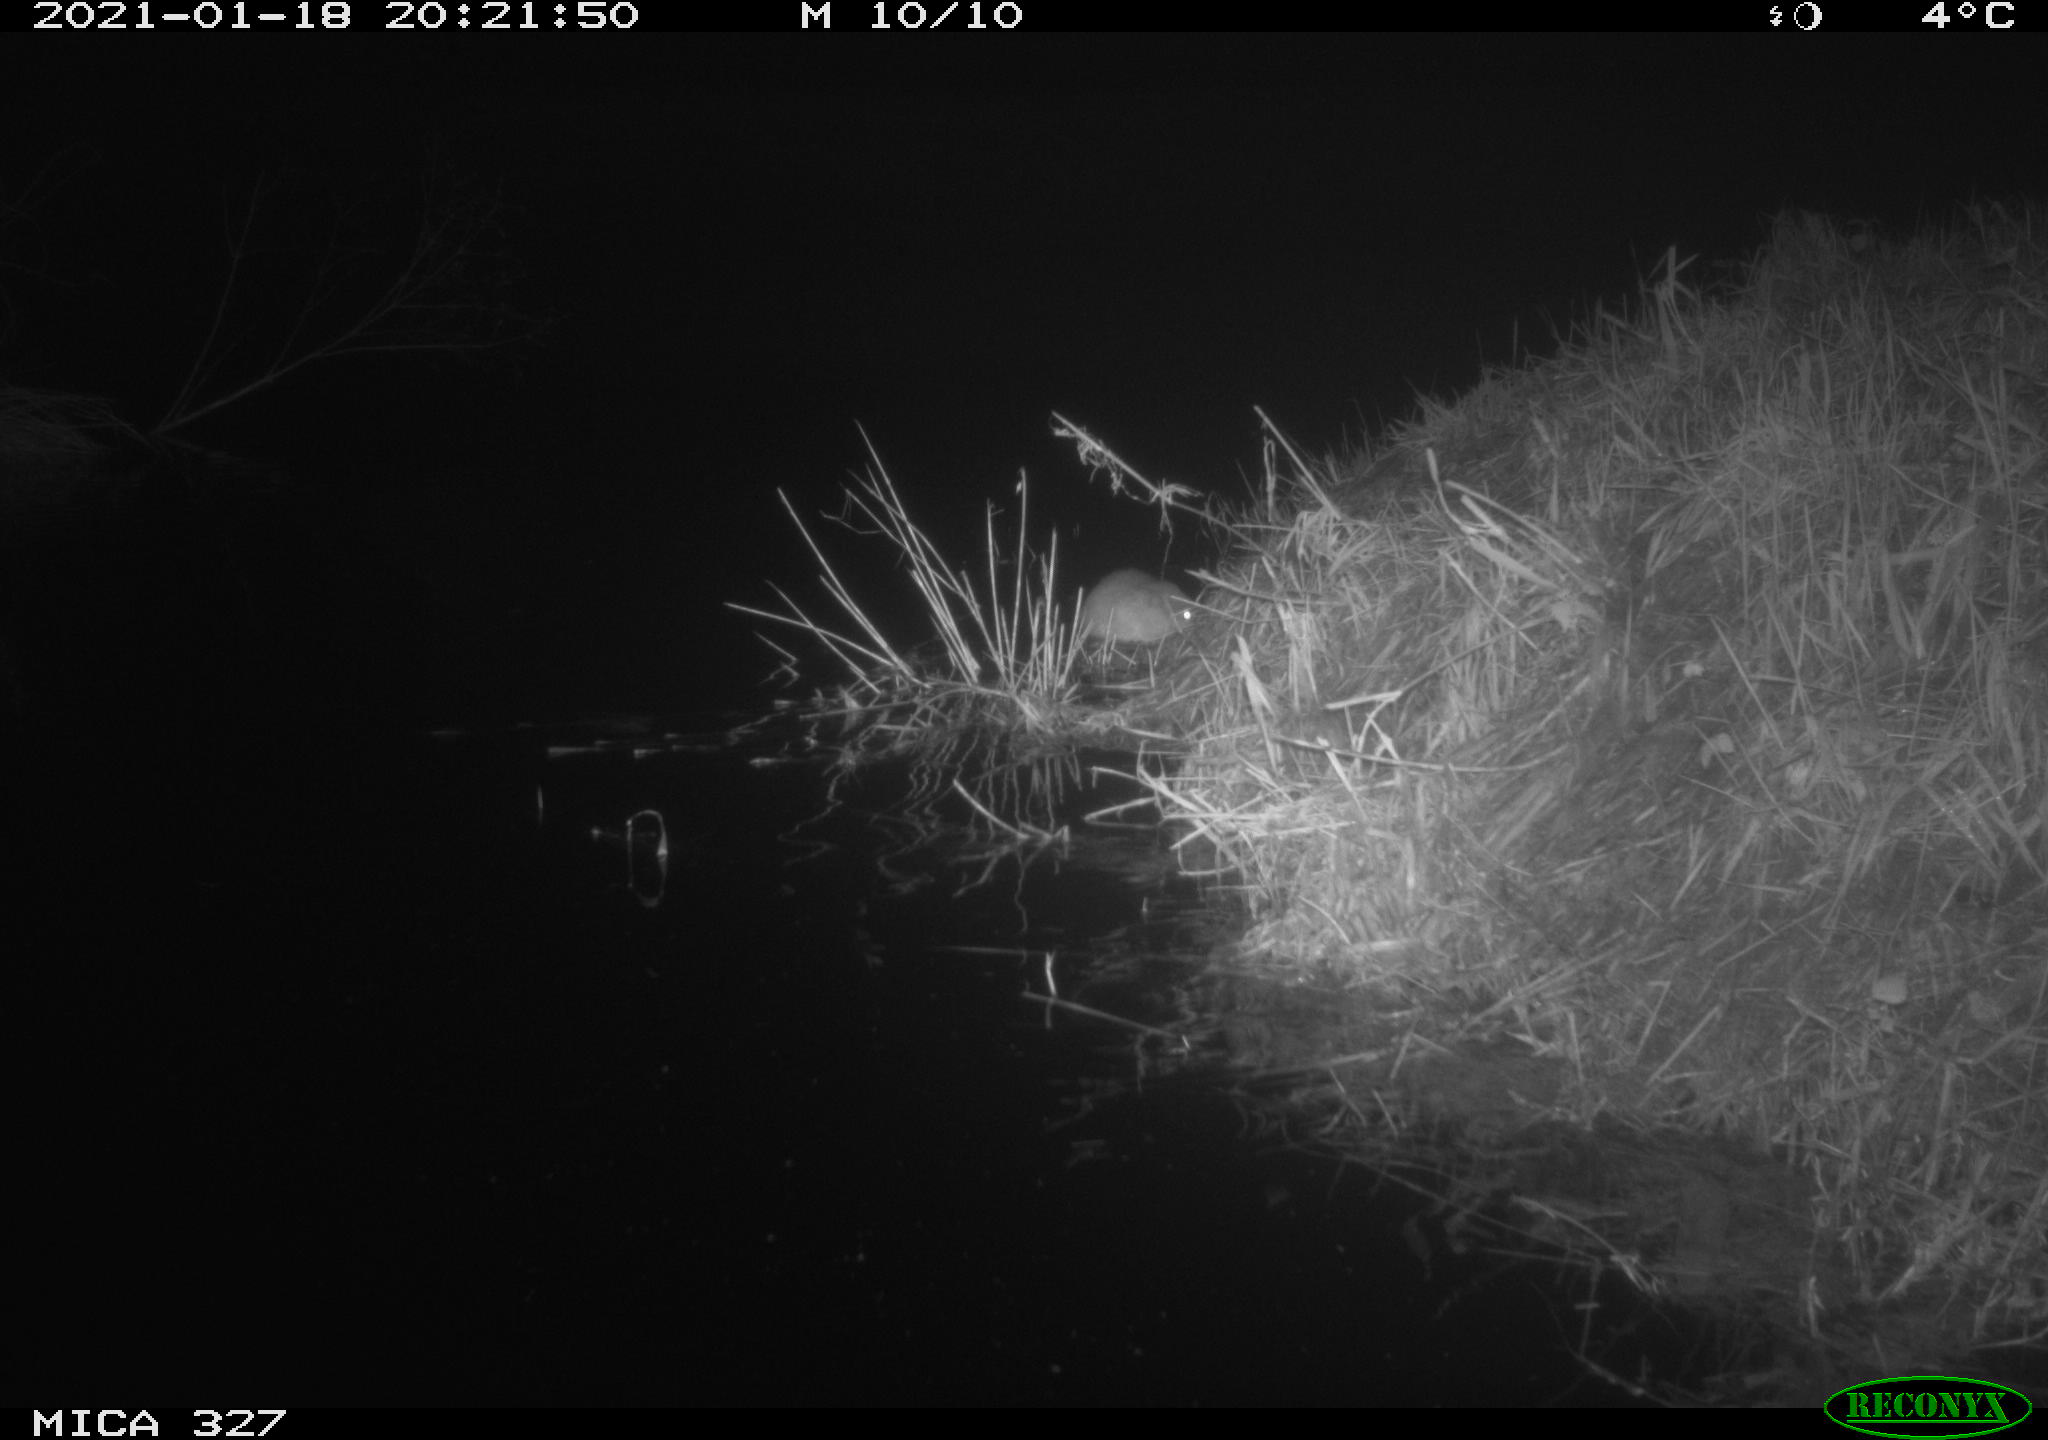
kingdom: Animalia
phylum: Chordata
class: Mammalia
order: Rodentia
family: Cricetidae
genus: Ondatra
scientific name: Ondatra zibethicus
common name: Muskrat
